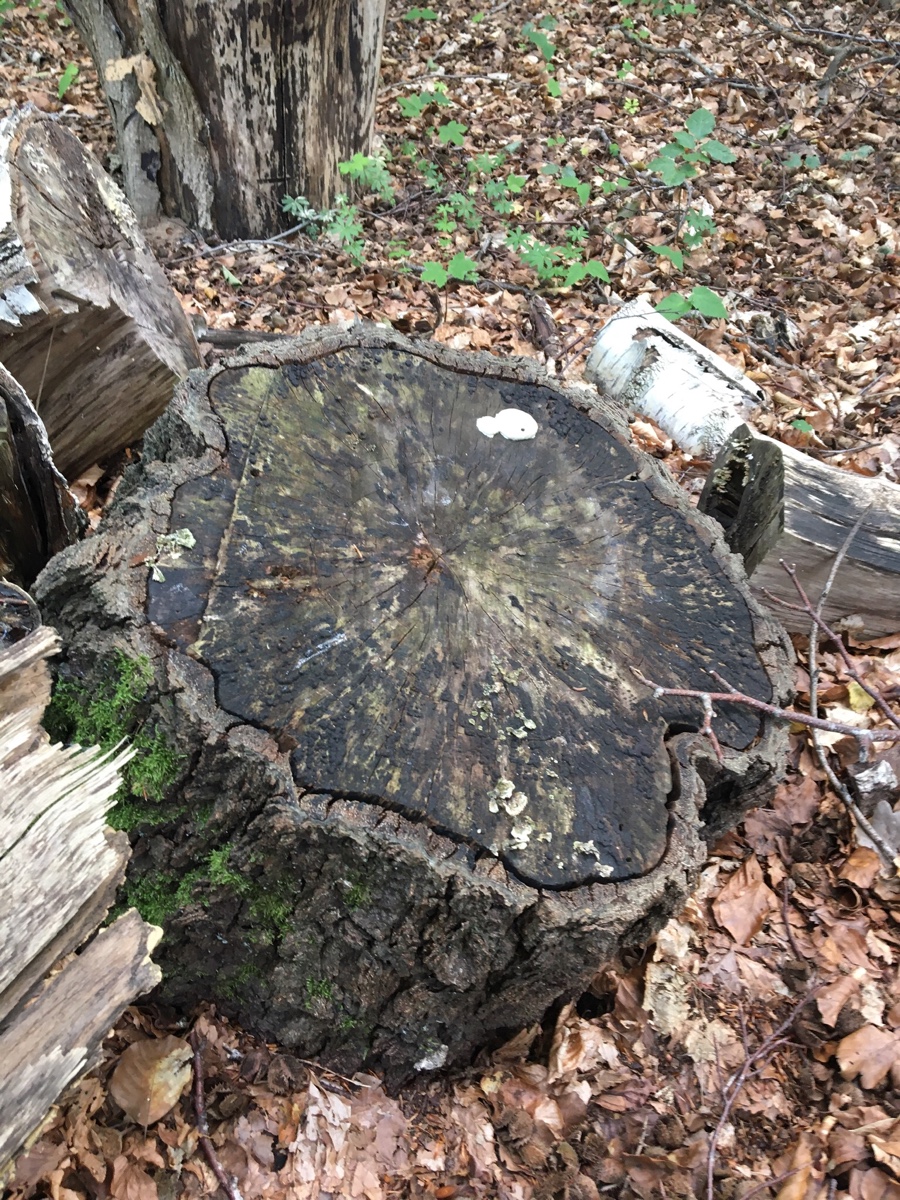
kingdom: Protozoa
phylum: Mycetozoa
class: Myxomycetes
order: Cribrariales
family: Tubiferaceae
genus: Reticularia
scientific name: Reticularia lycoperdon
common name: skinnende støvpude
